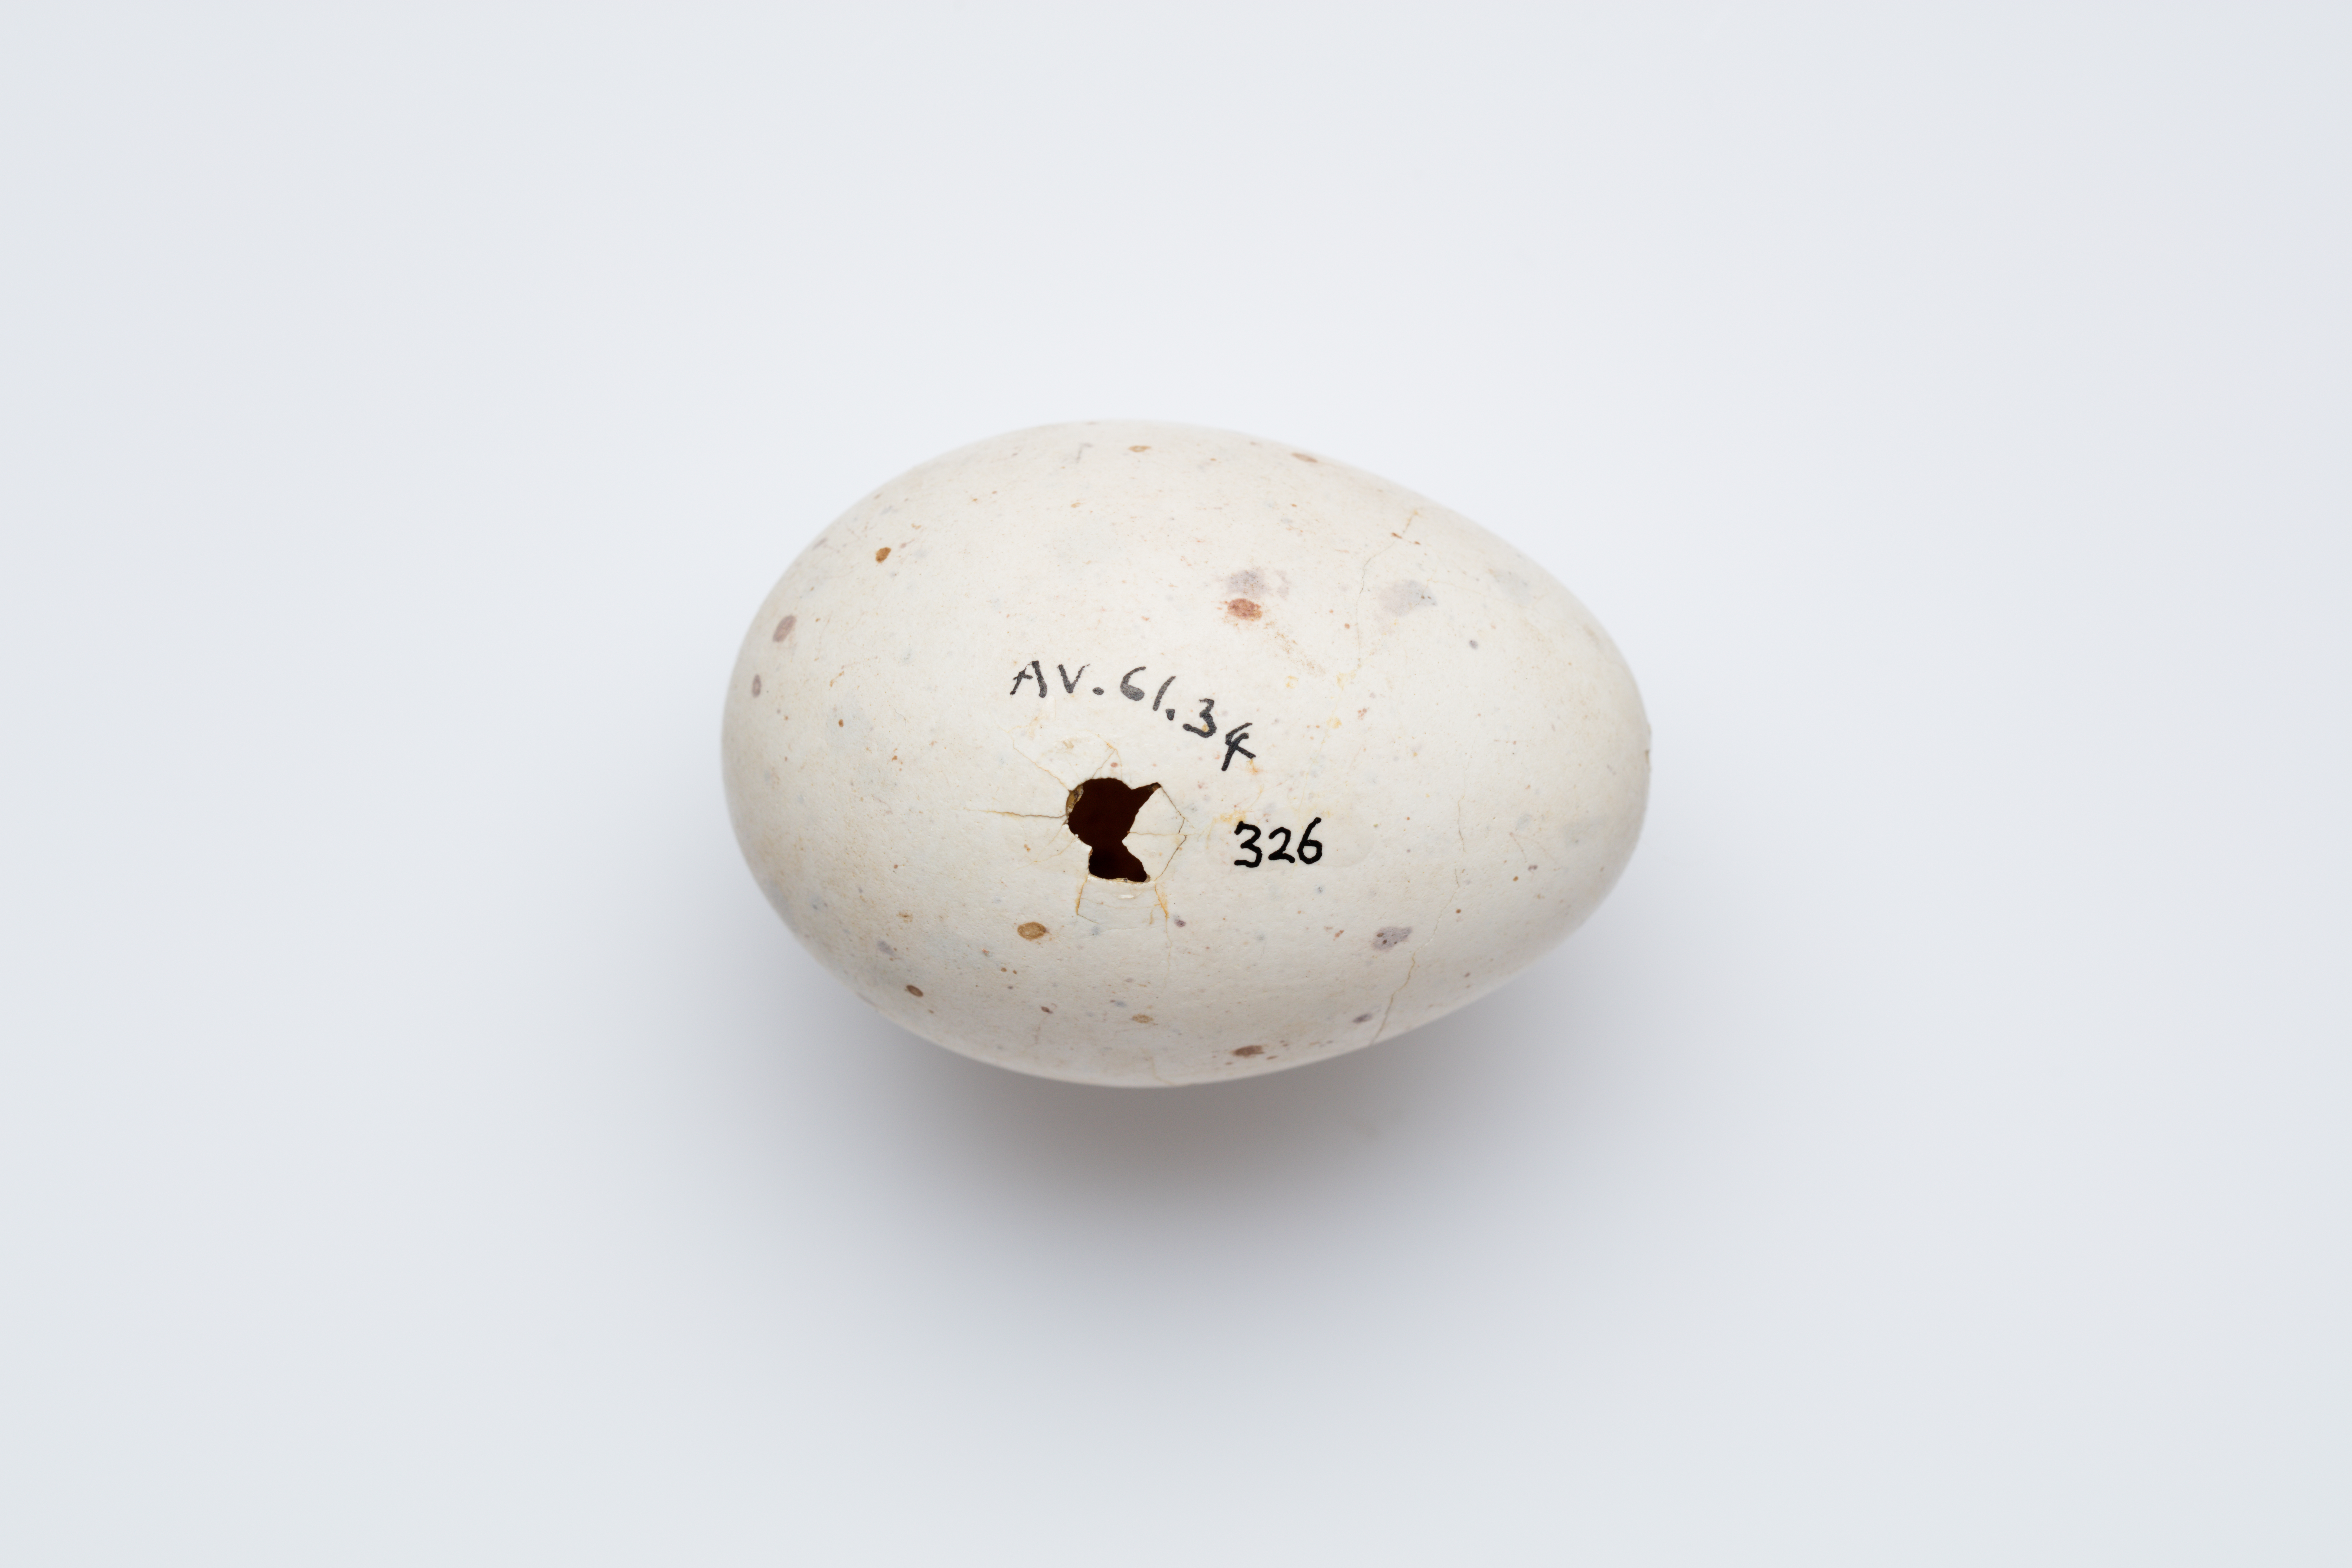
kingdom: Animalia
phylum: Chordata
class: Aves
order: Gruiformes
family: Rallidae
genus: Gallirallus
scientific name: Gallirallus australis
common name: Weka
